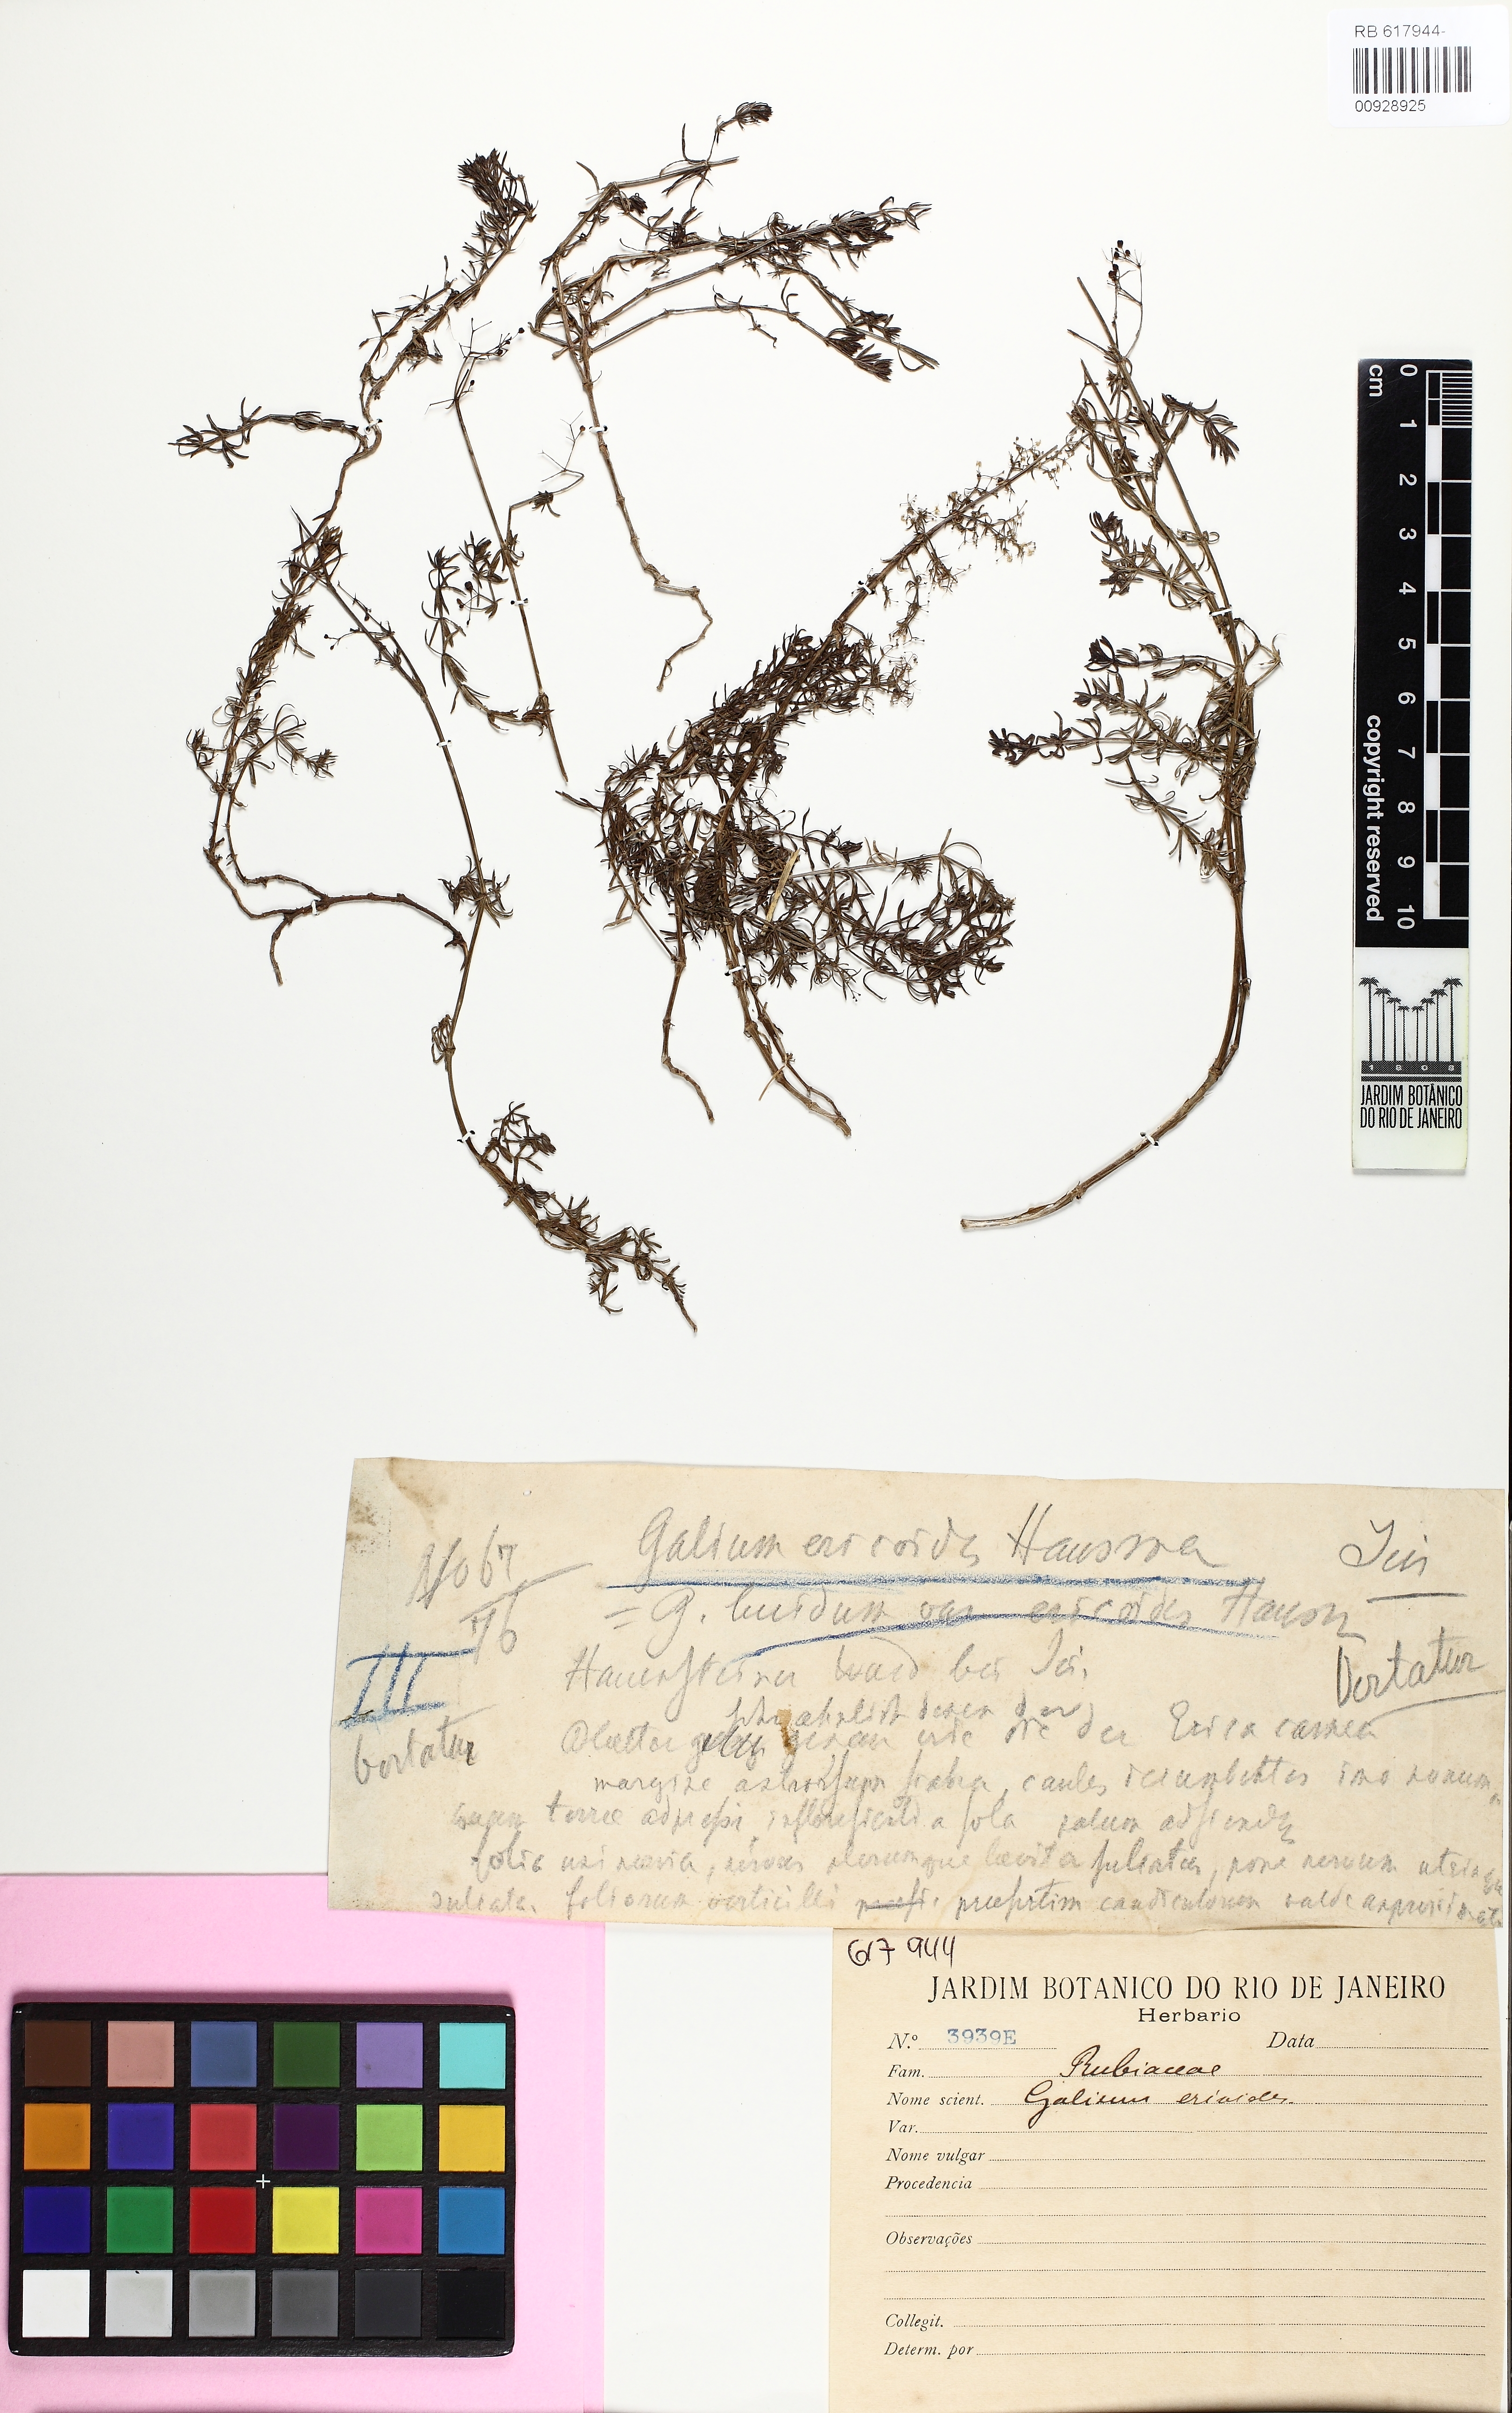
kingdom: Plantae
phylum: Tracheophyta
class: Magnoliopsida
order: Gentianales
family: Rubiaceae
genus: Galium
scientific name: Galium ericoides
